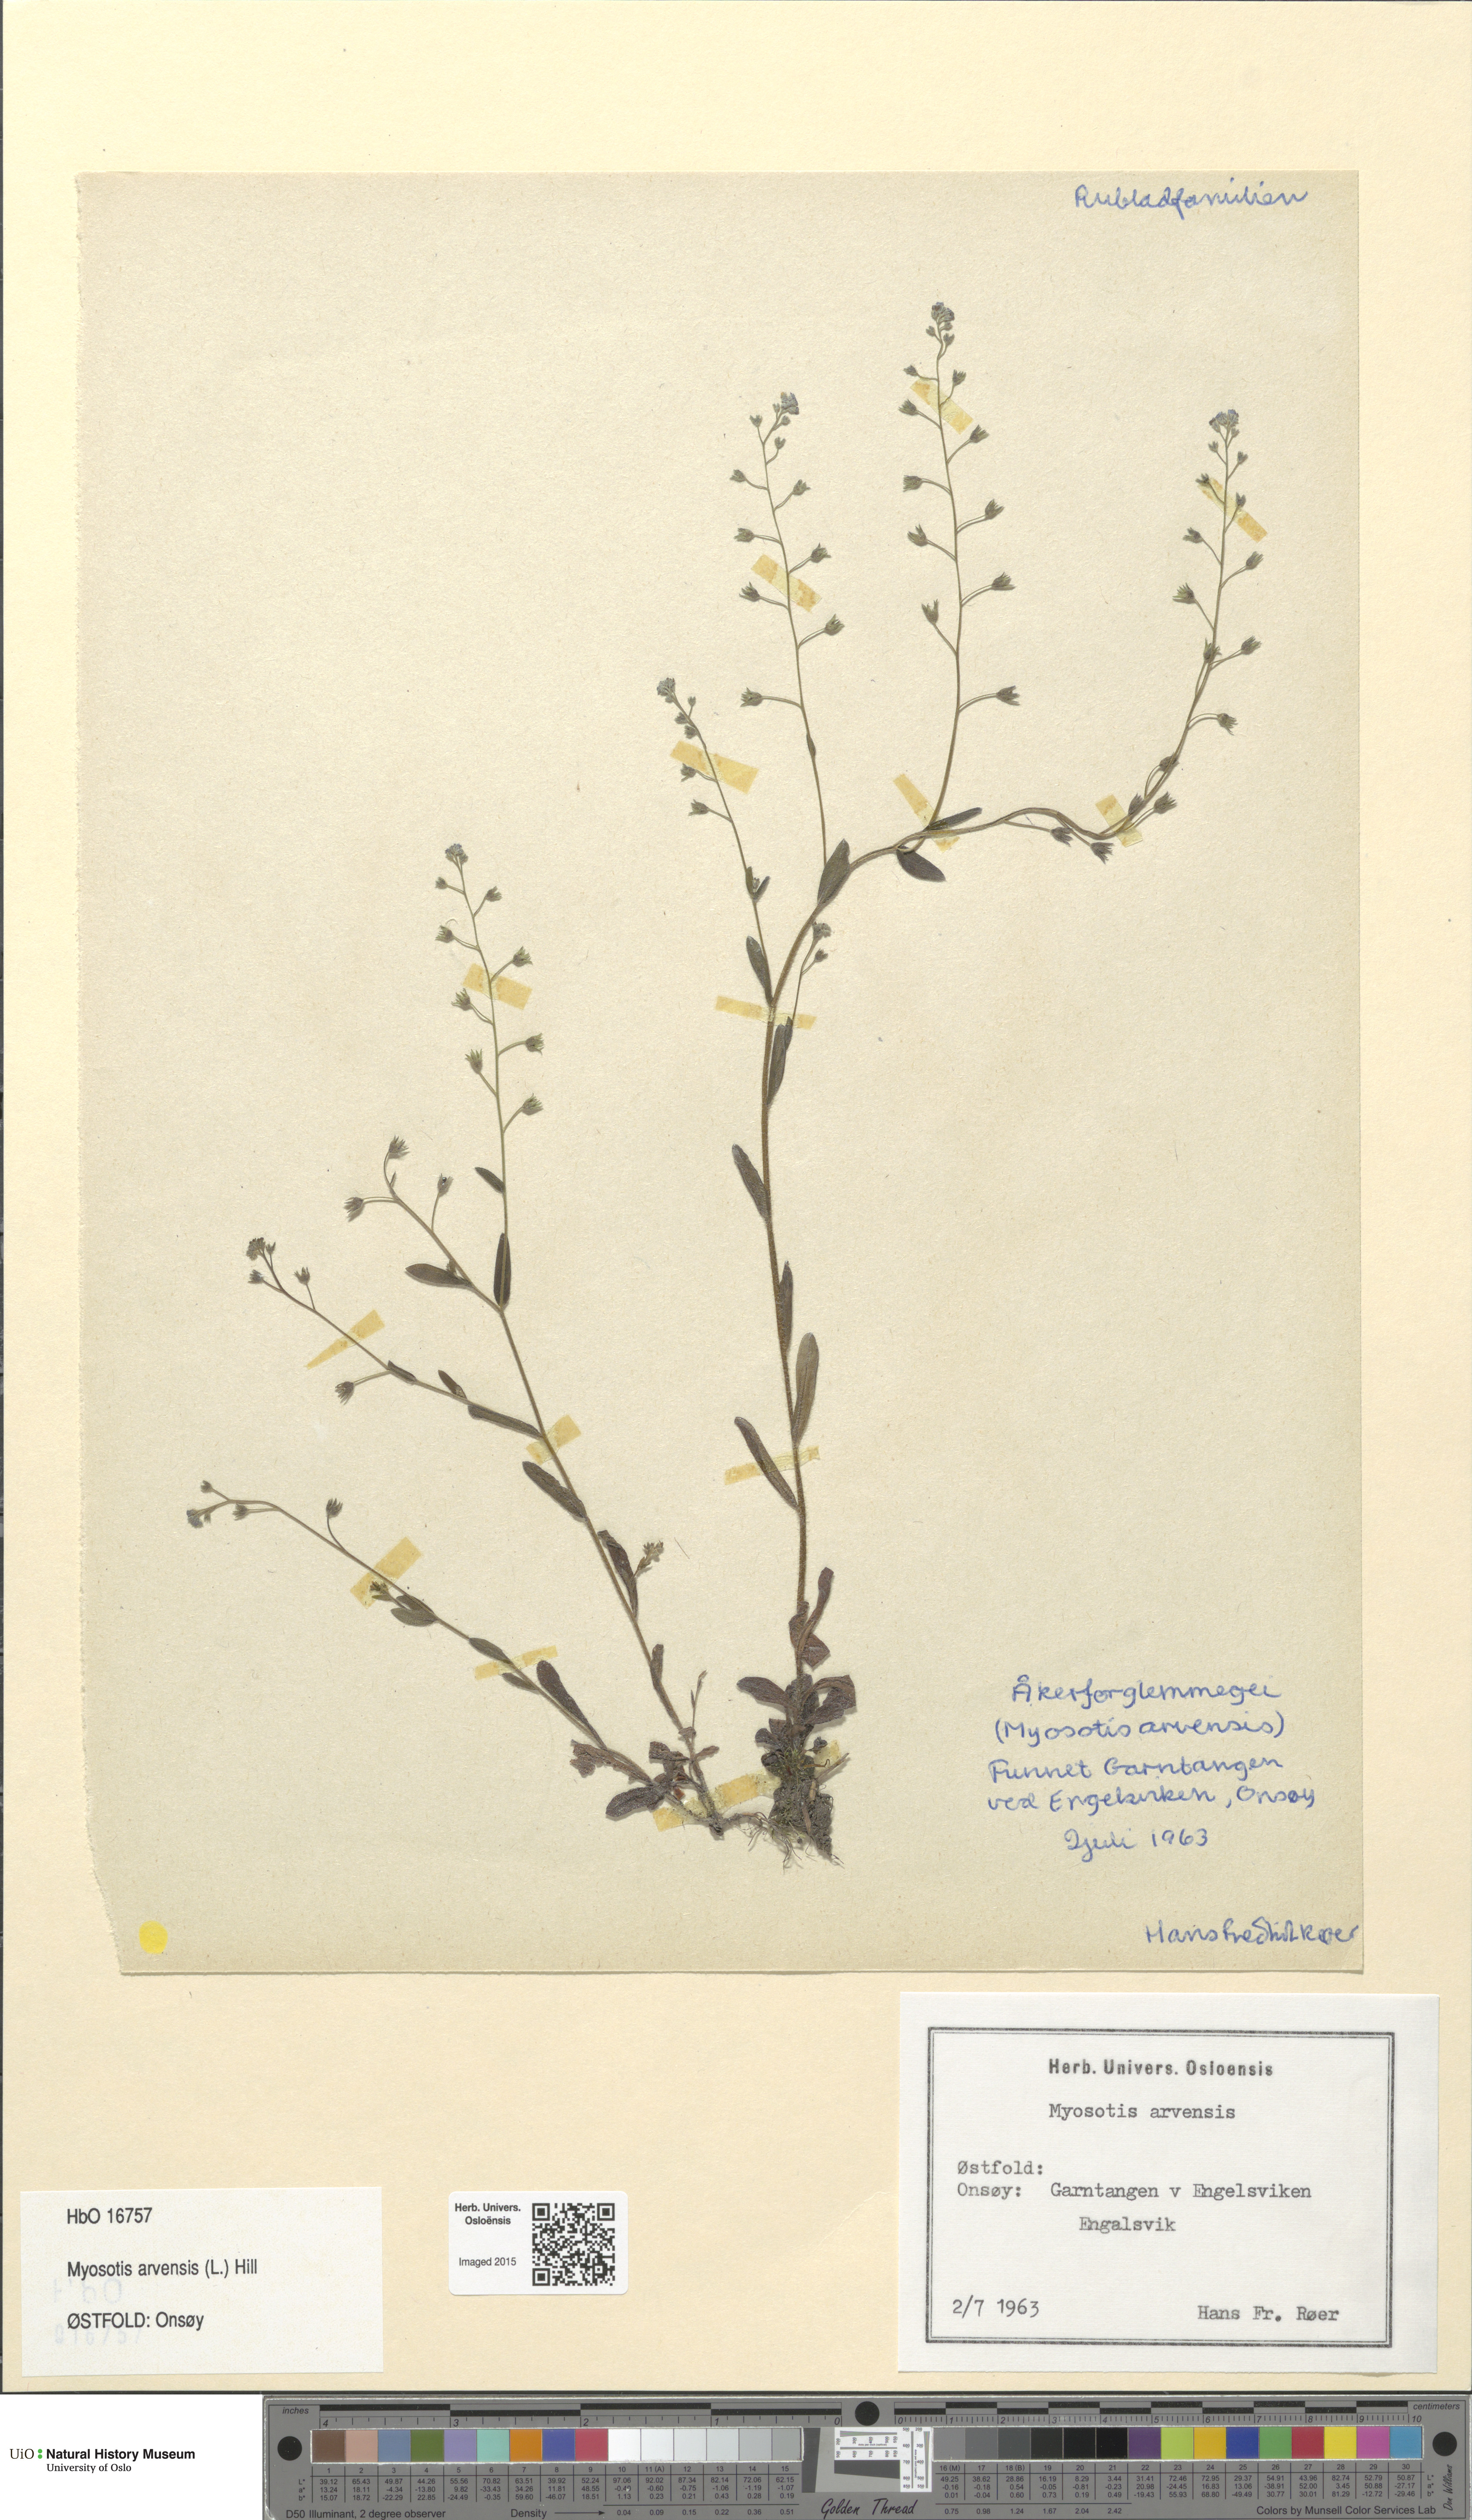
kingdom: Plantae
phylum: Tracheophyta
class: Magnoliopsida
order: Boraginales
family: Boraginaceae
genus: Myosotis
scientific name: Myosotis arvensis
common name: Field forget-me-not
